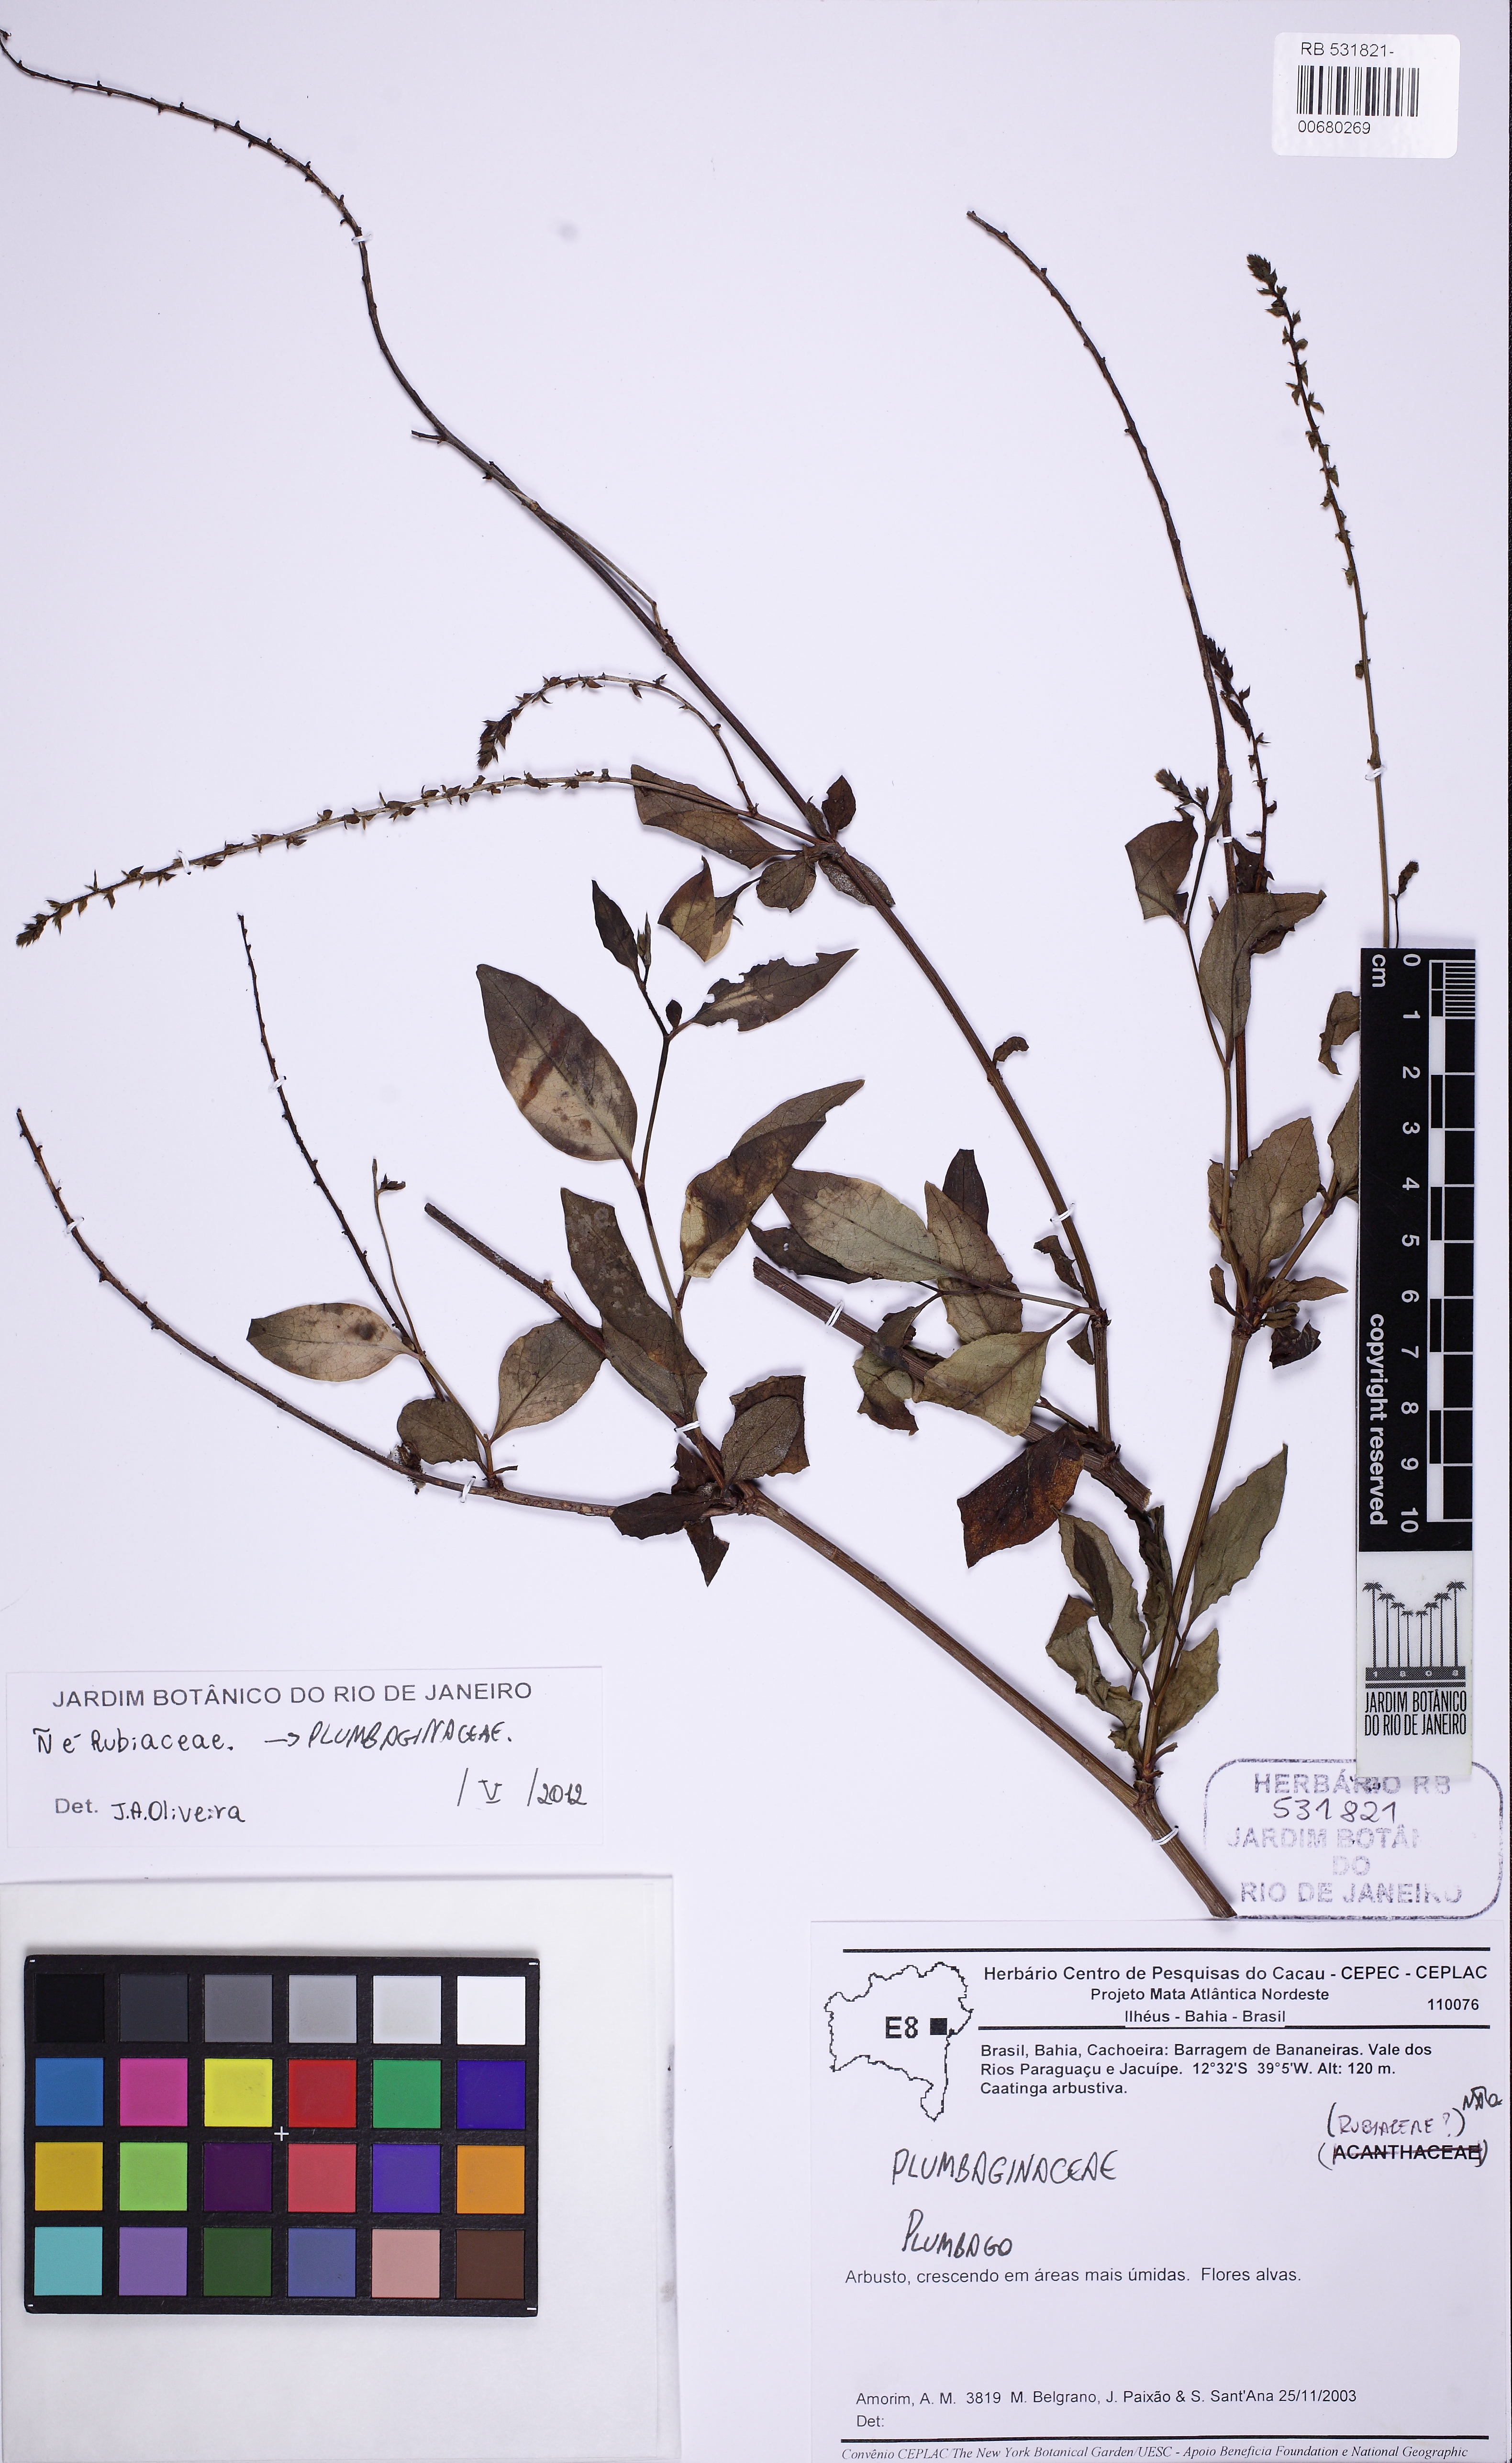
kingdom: Plantae
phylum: Tracheophyta
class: Magnoliopsida
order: Caryophyllales
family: Plumbaginaceae
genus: Plumbago
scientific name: Plumbago
